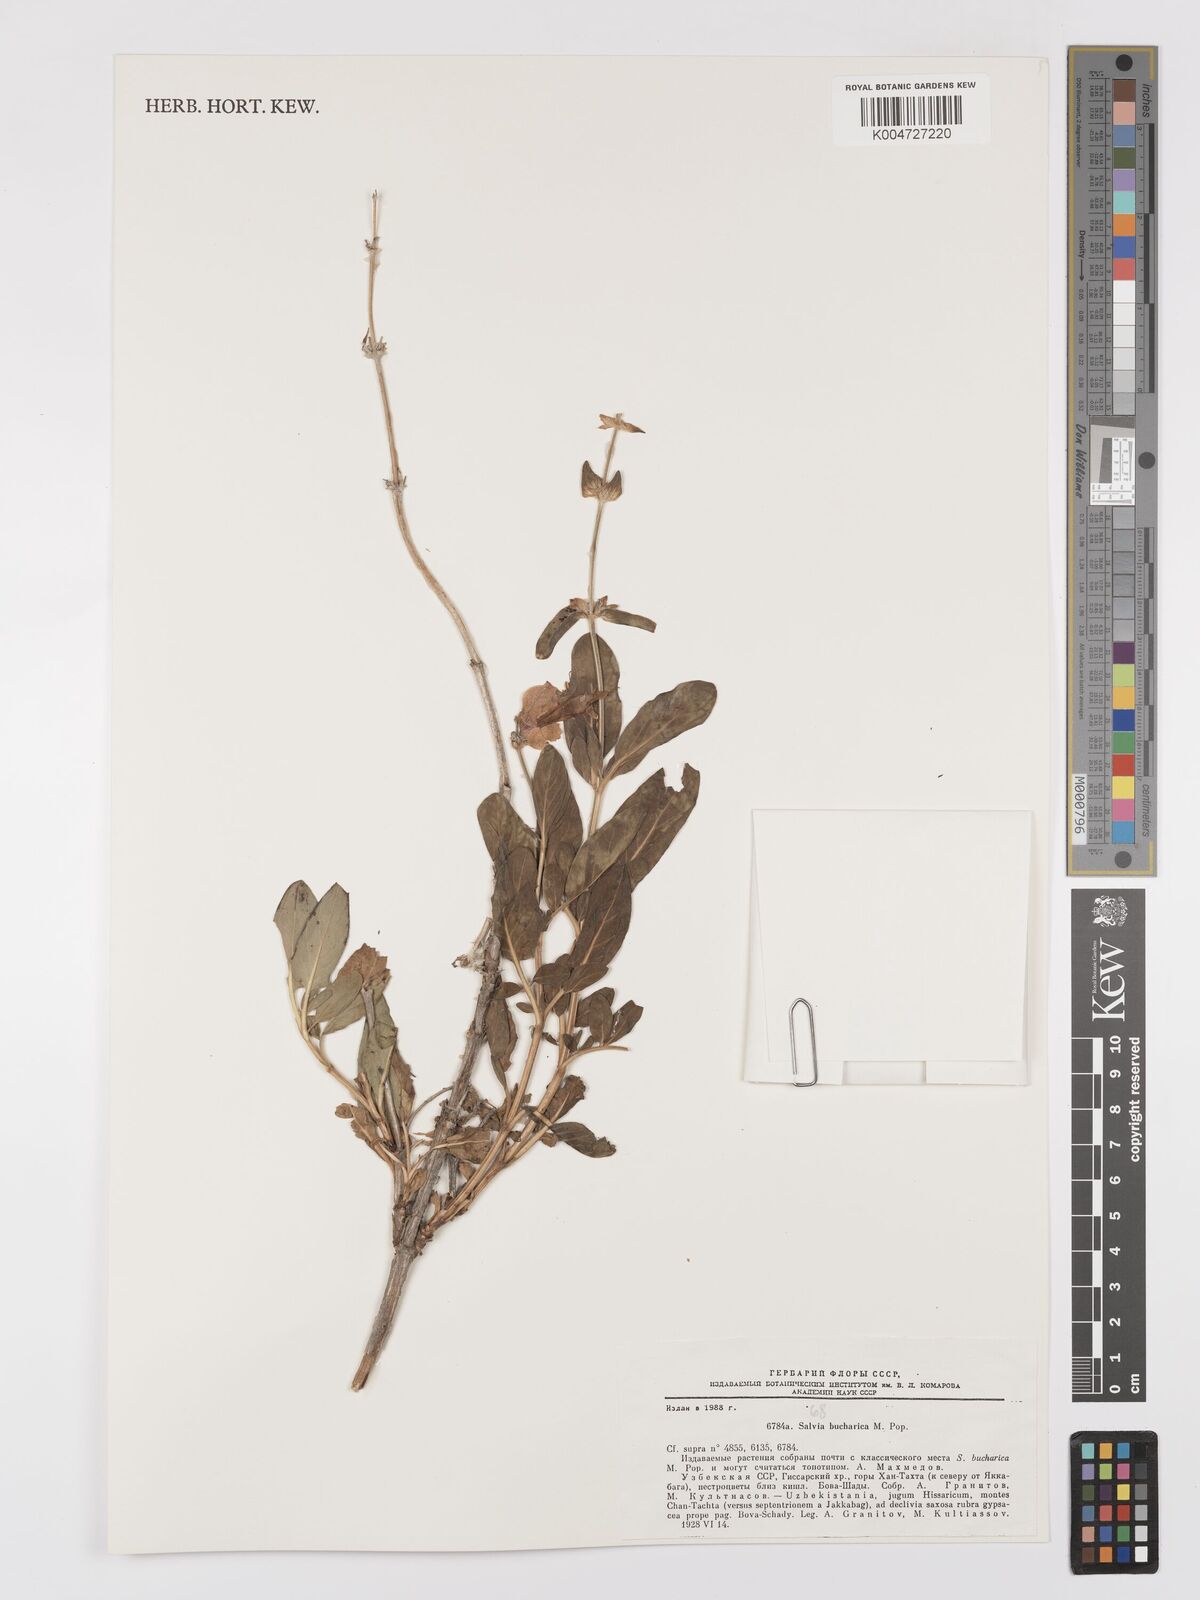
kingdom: Plantae
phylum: Tracheophyta
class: Magnoliopsida
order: Lamiales
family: Lamiaceae
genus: Salvia
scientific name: Salvia bucharica
